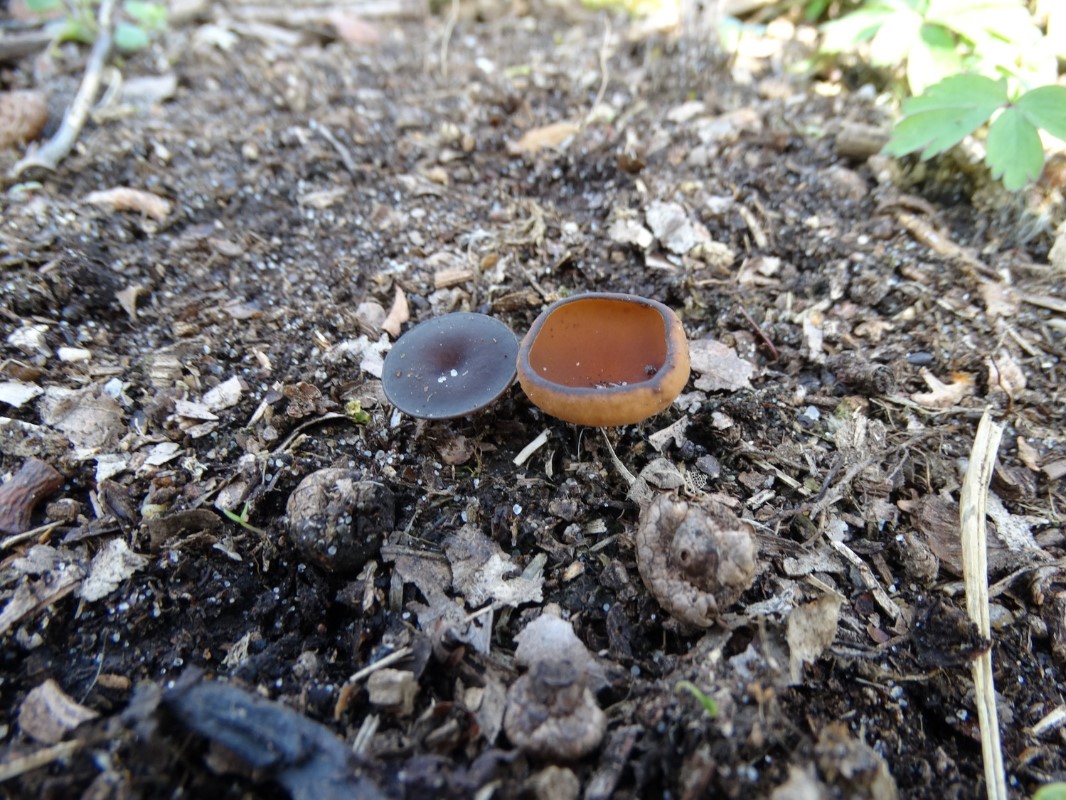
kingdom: Fungi
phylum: Ascomycota
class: Leotiomycetes
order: Helotiales
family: Sclerotiniaceae
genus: Dumontinia
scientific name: Dumontinia tuberosa
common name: anemone-knoldskive
